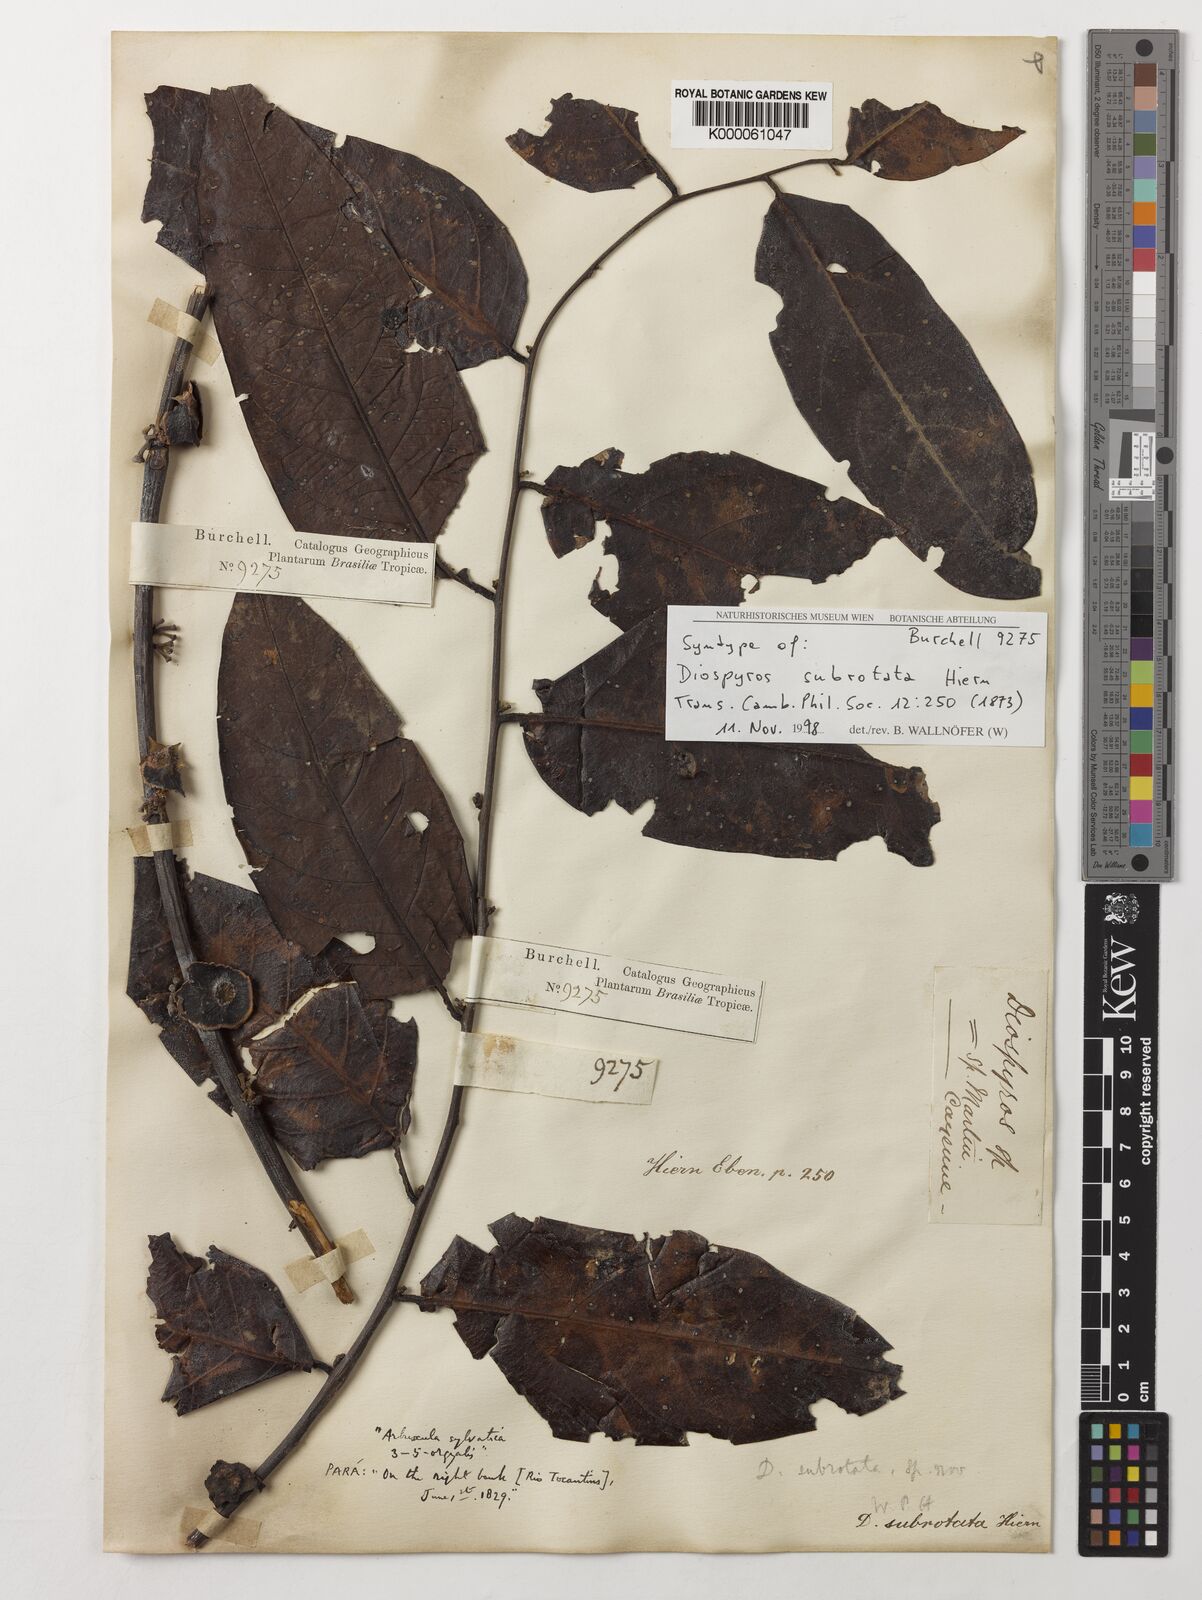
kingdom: Plantae
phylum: Tracheophyta
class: Magnoliopsida
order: Ericales
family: Ebenaceae
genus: Diospyros
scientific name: Diospyros subrotata
